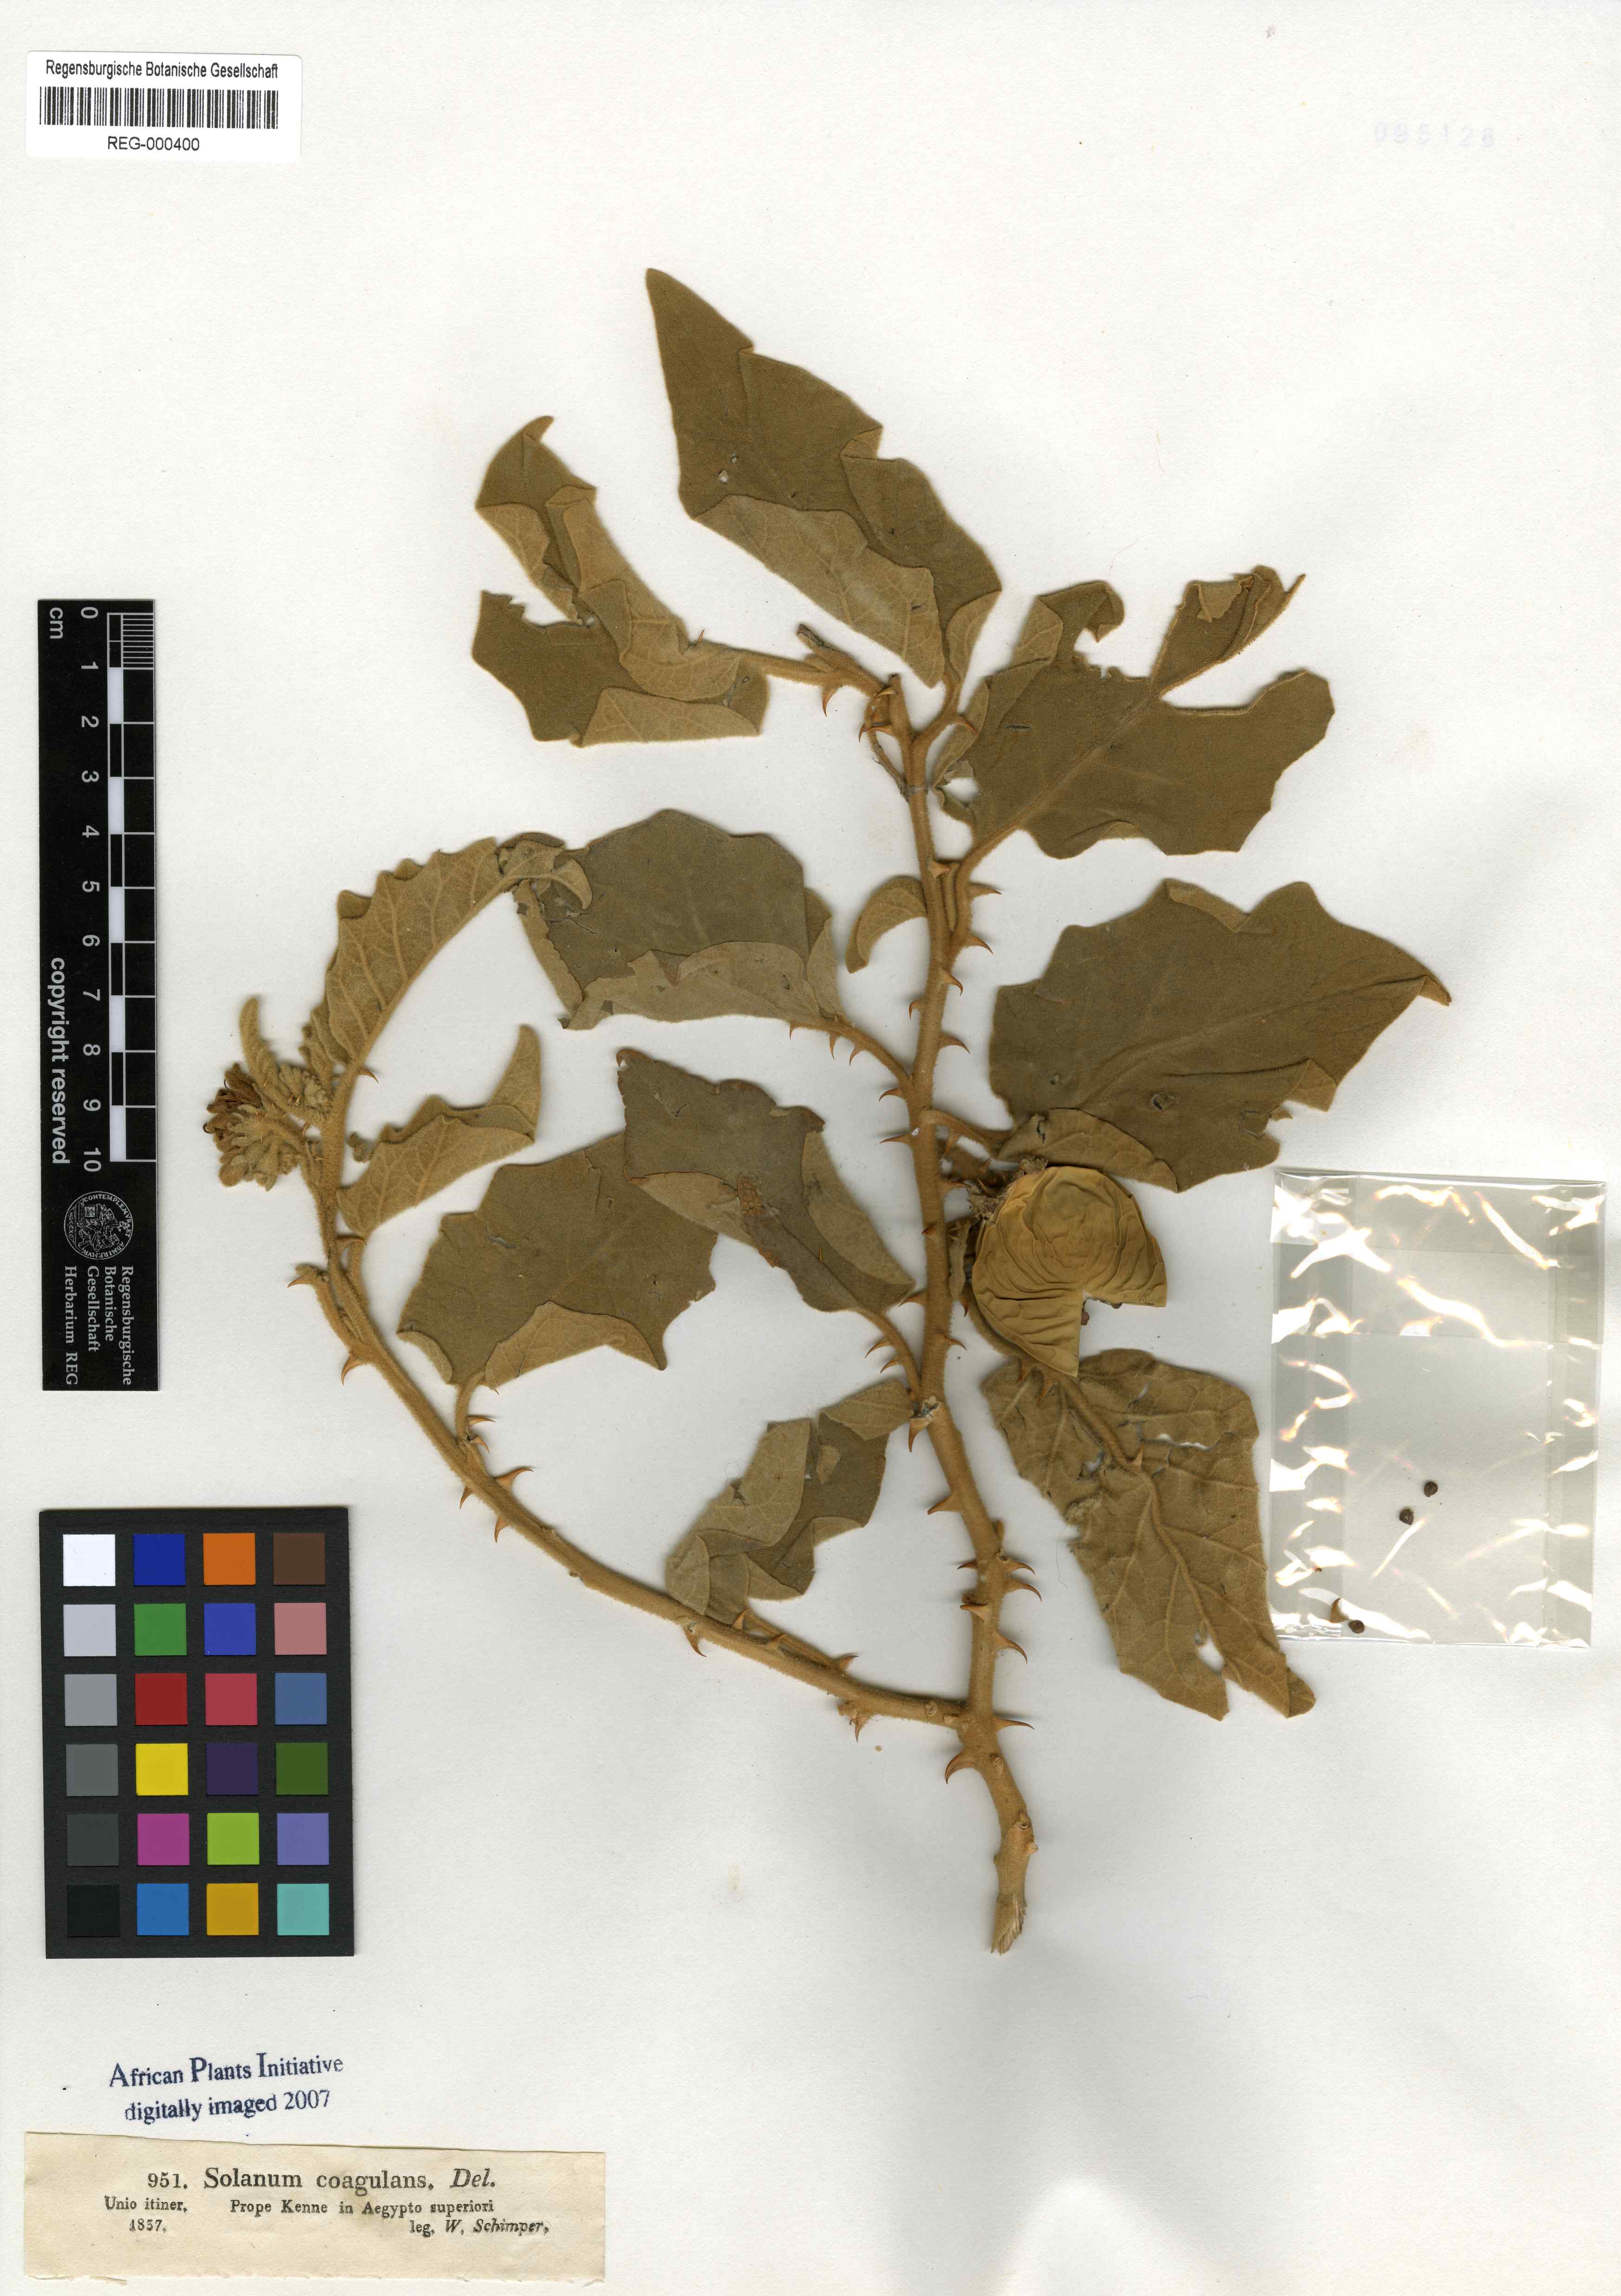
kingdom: Plantae
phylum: Tracheophyta
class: Magnoliopsida
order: Solanales
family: Solanaceae
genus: Solanum
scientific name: Solanum incanum
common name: Bitter apple
